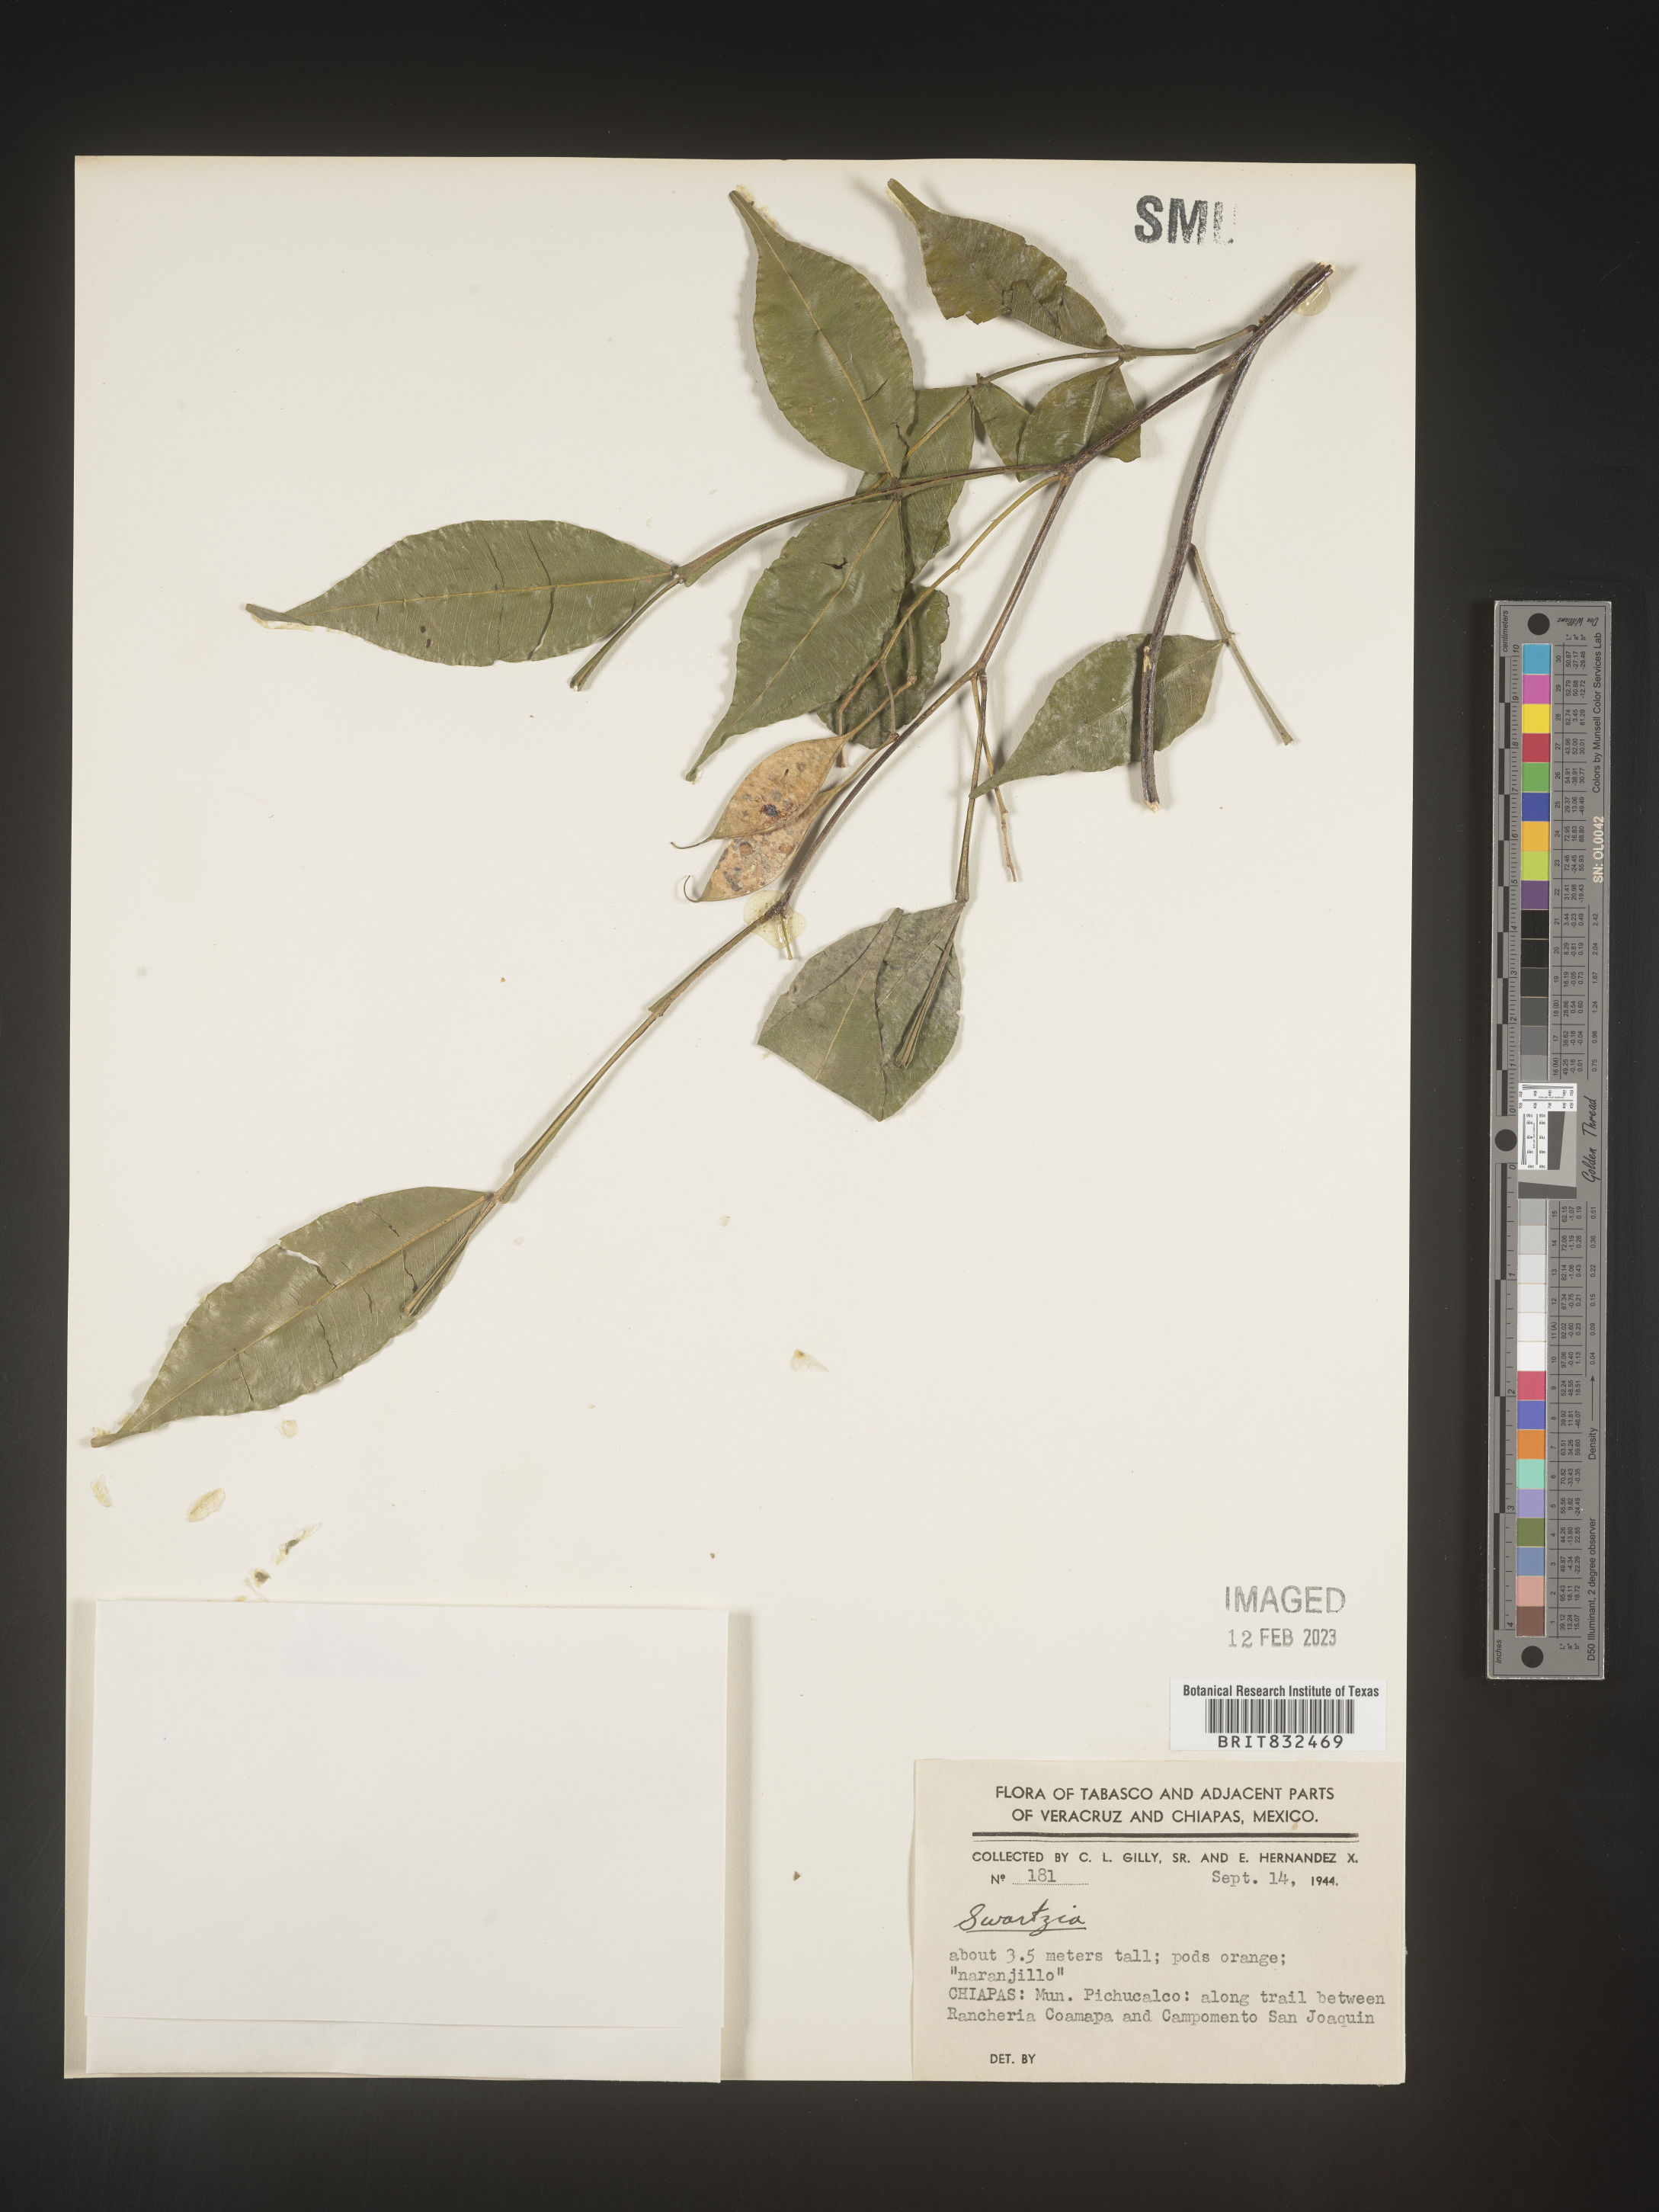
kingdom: Plantae
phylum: Tracheophyta
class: Magnoliopsida
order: Fabales
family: Fabaceae
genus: Swartzia
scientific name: Swartzia
